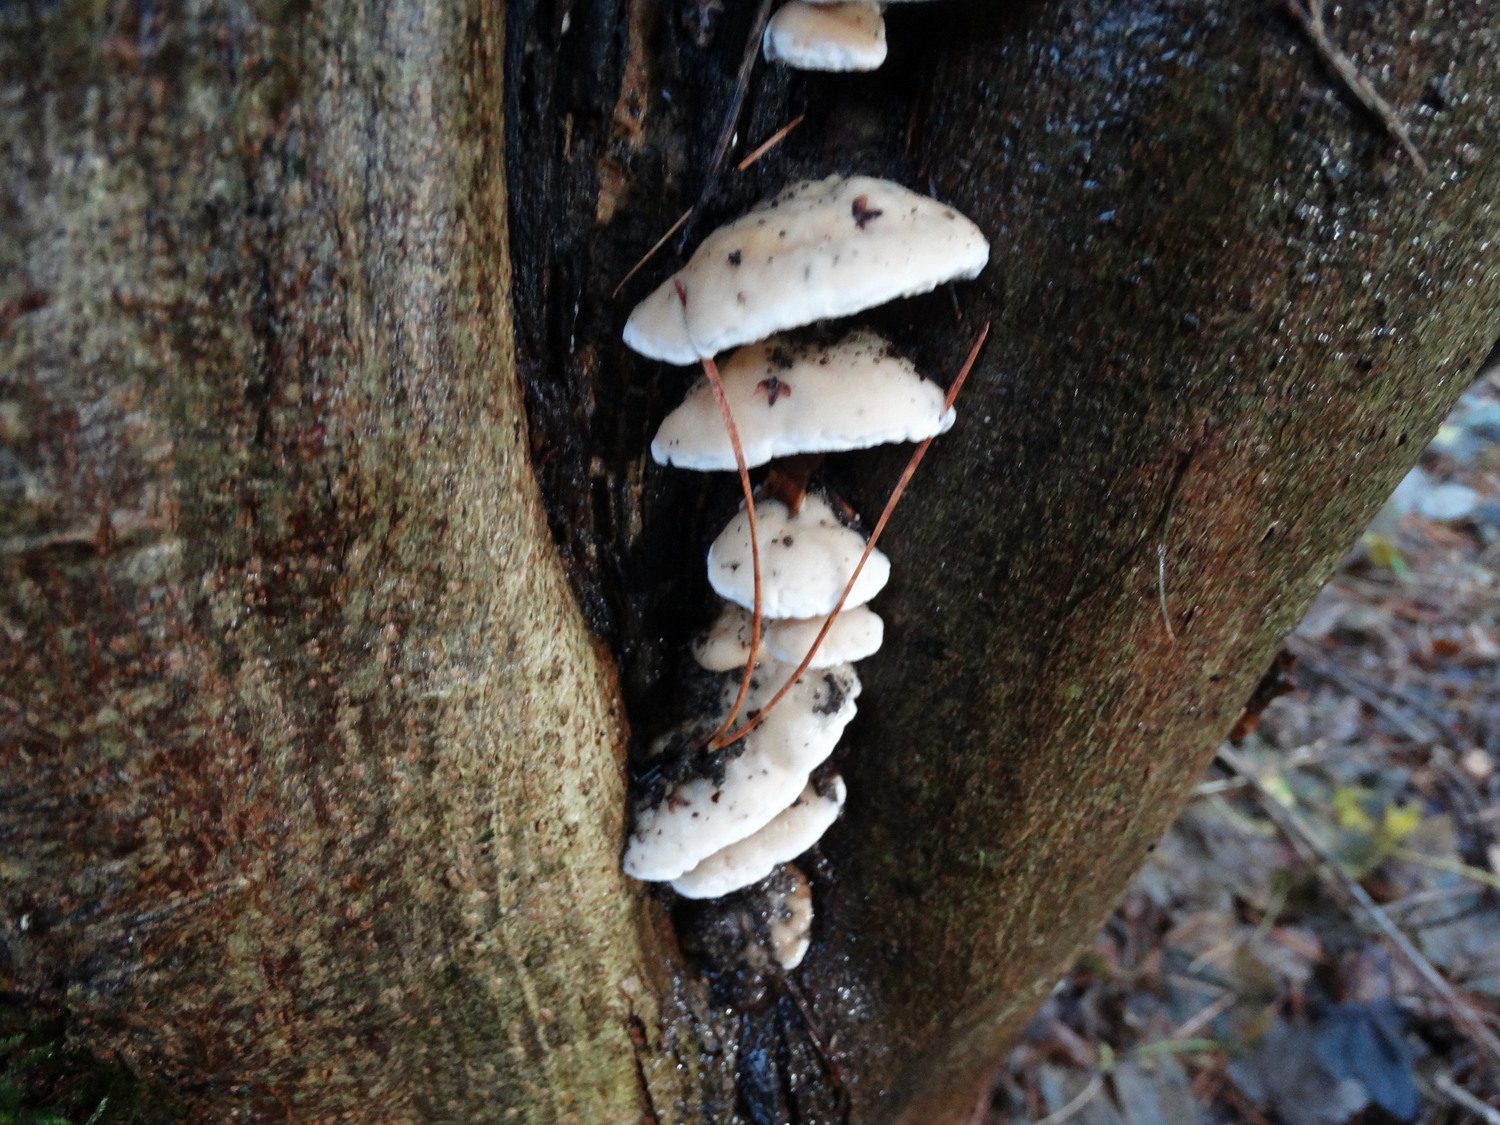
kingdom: Fungi
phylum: Basidiomycota
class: Agaricomycetes
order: Polyporales
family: Phanerochaetaceae
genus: Bjerkandera
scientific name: Bjerkandera fumosa
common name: grågul sodporesvamp
